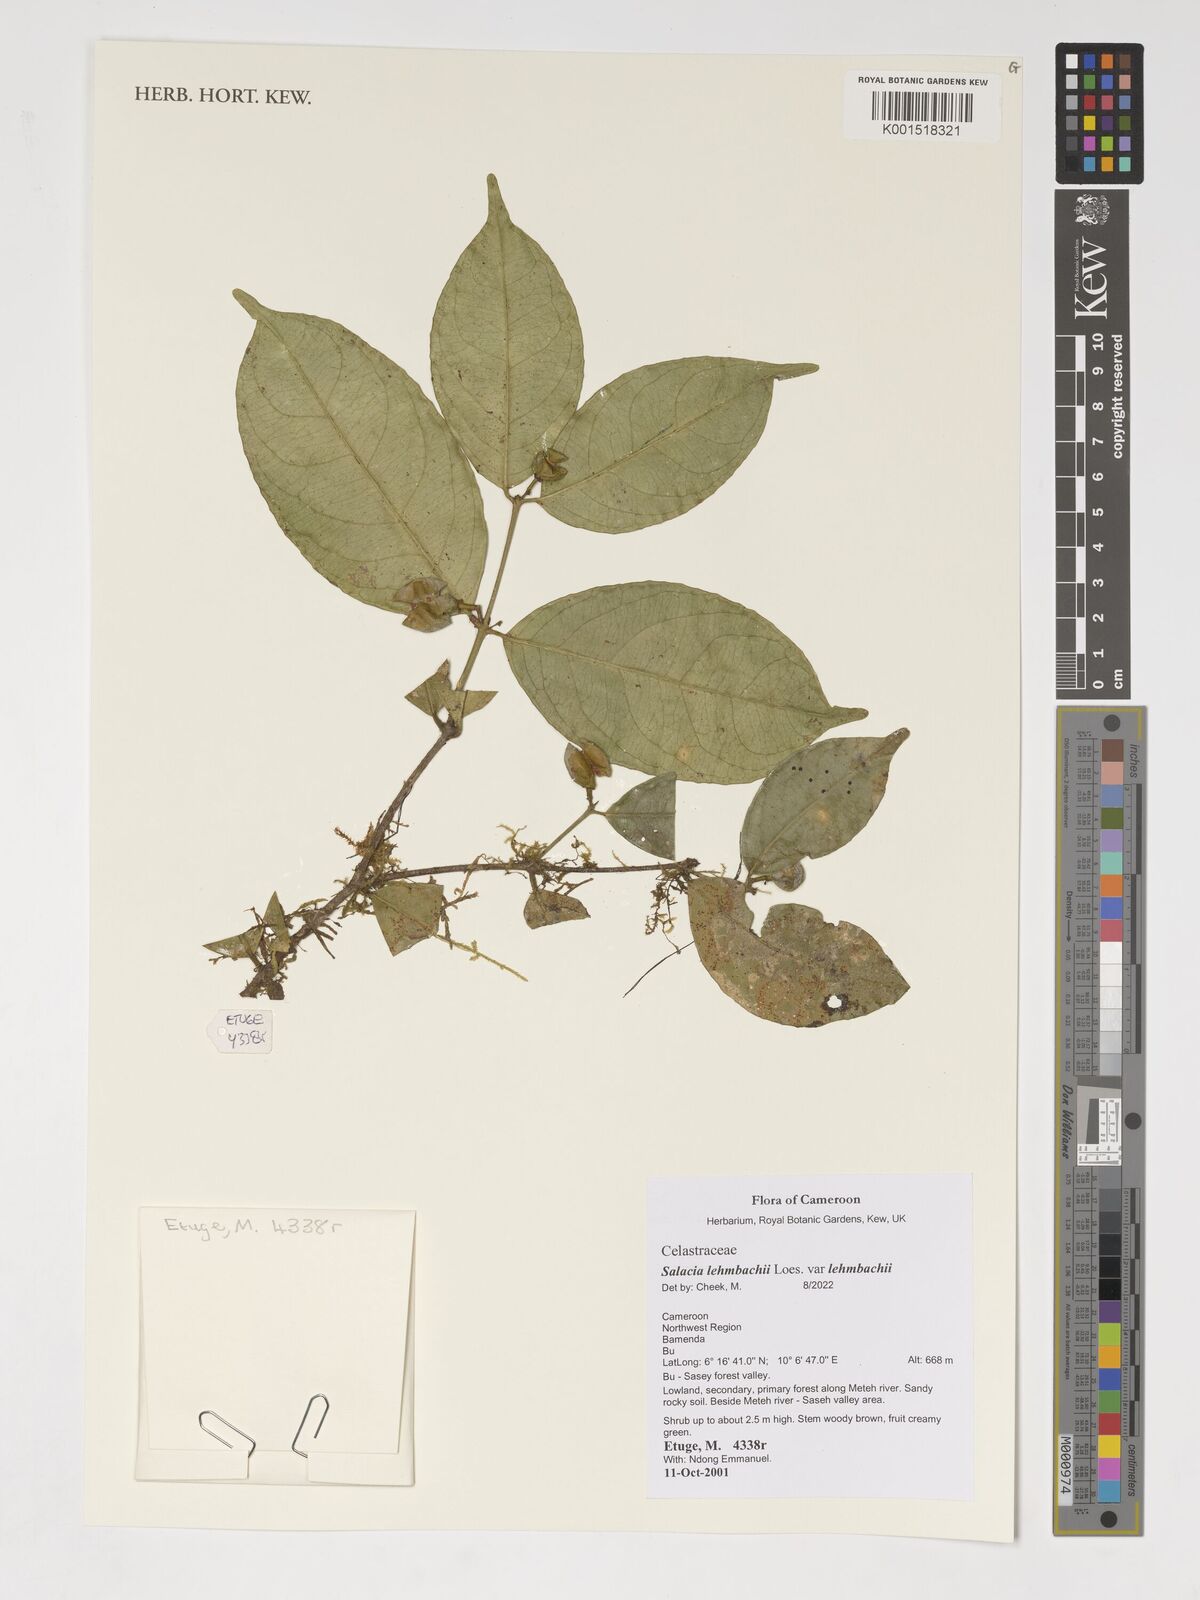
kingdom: Plantae
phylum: Tracheophyta
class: Magnoliopsida
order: Celastrales
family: Celastraceae
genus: Salacia
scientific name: Salacia lehmbachii
